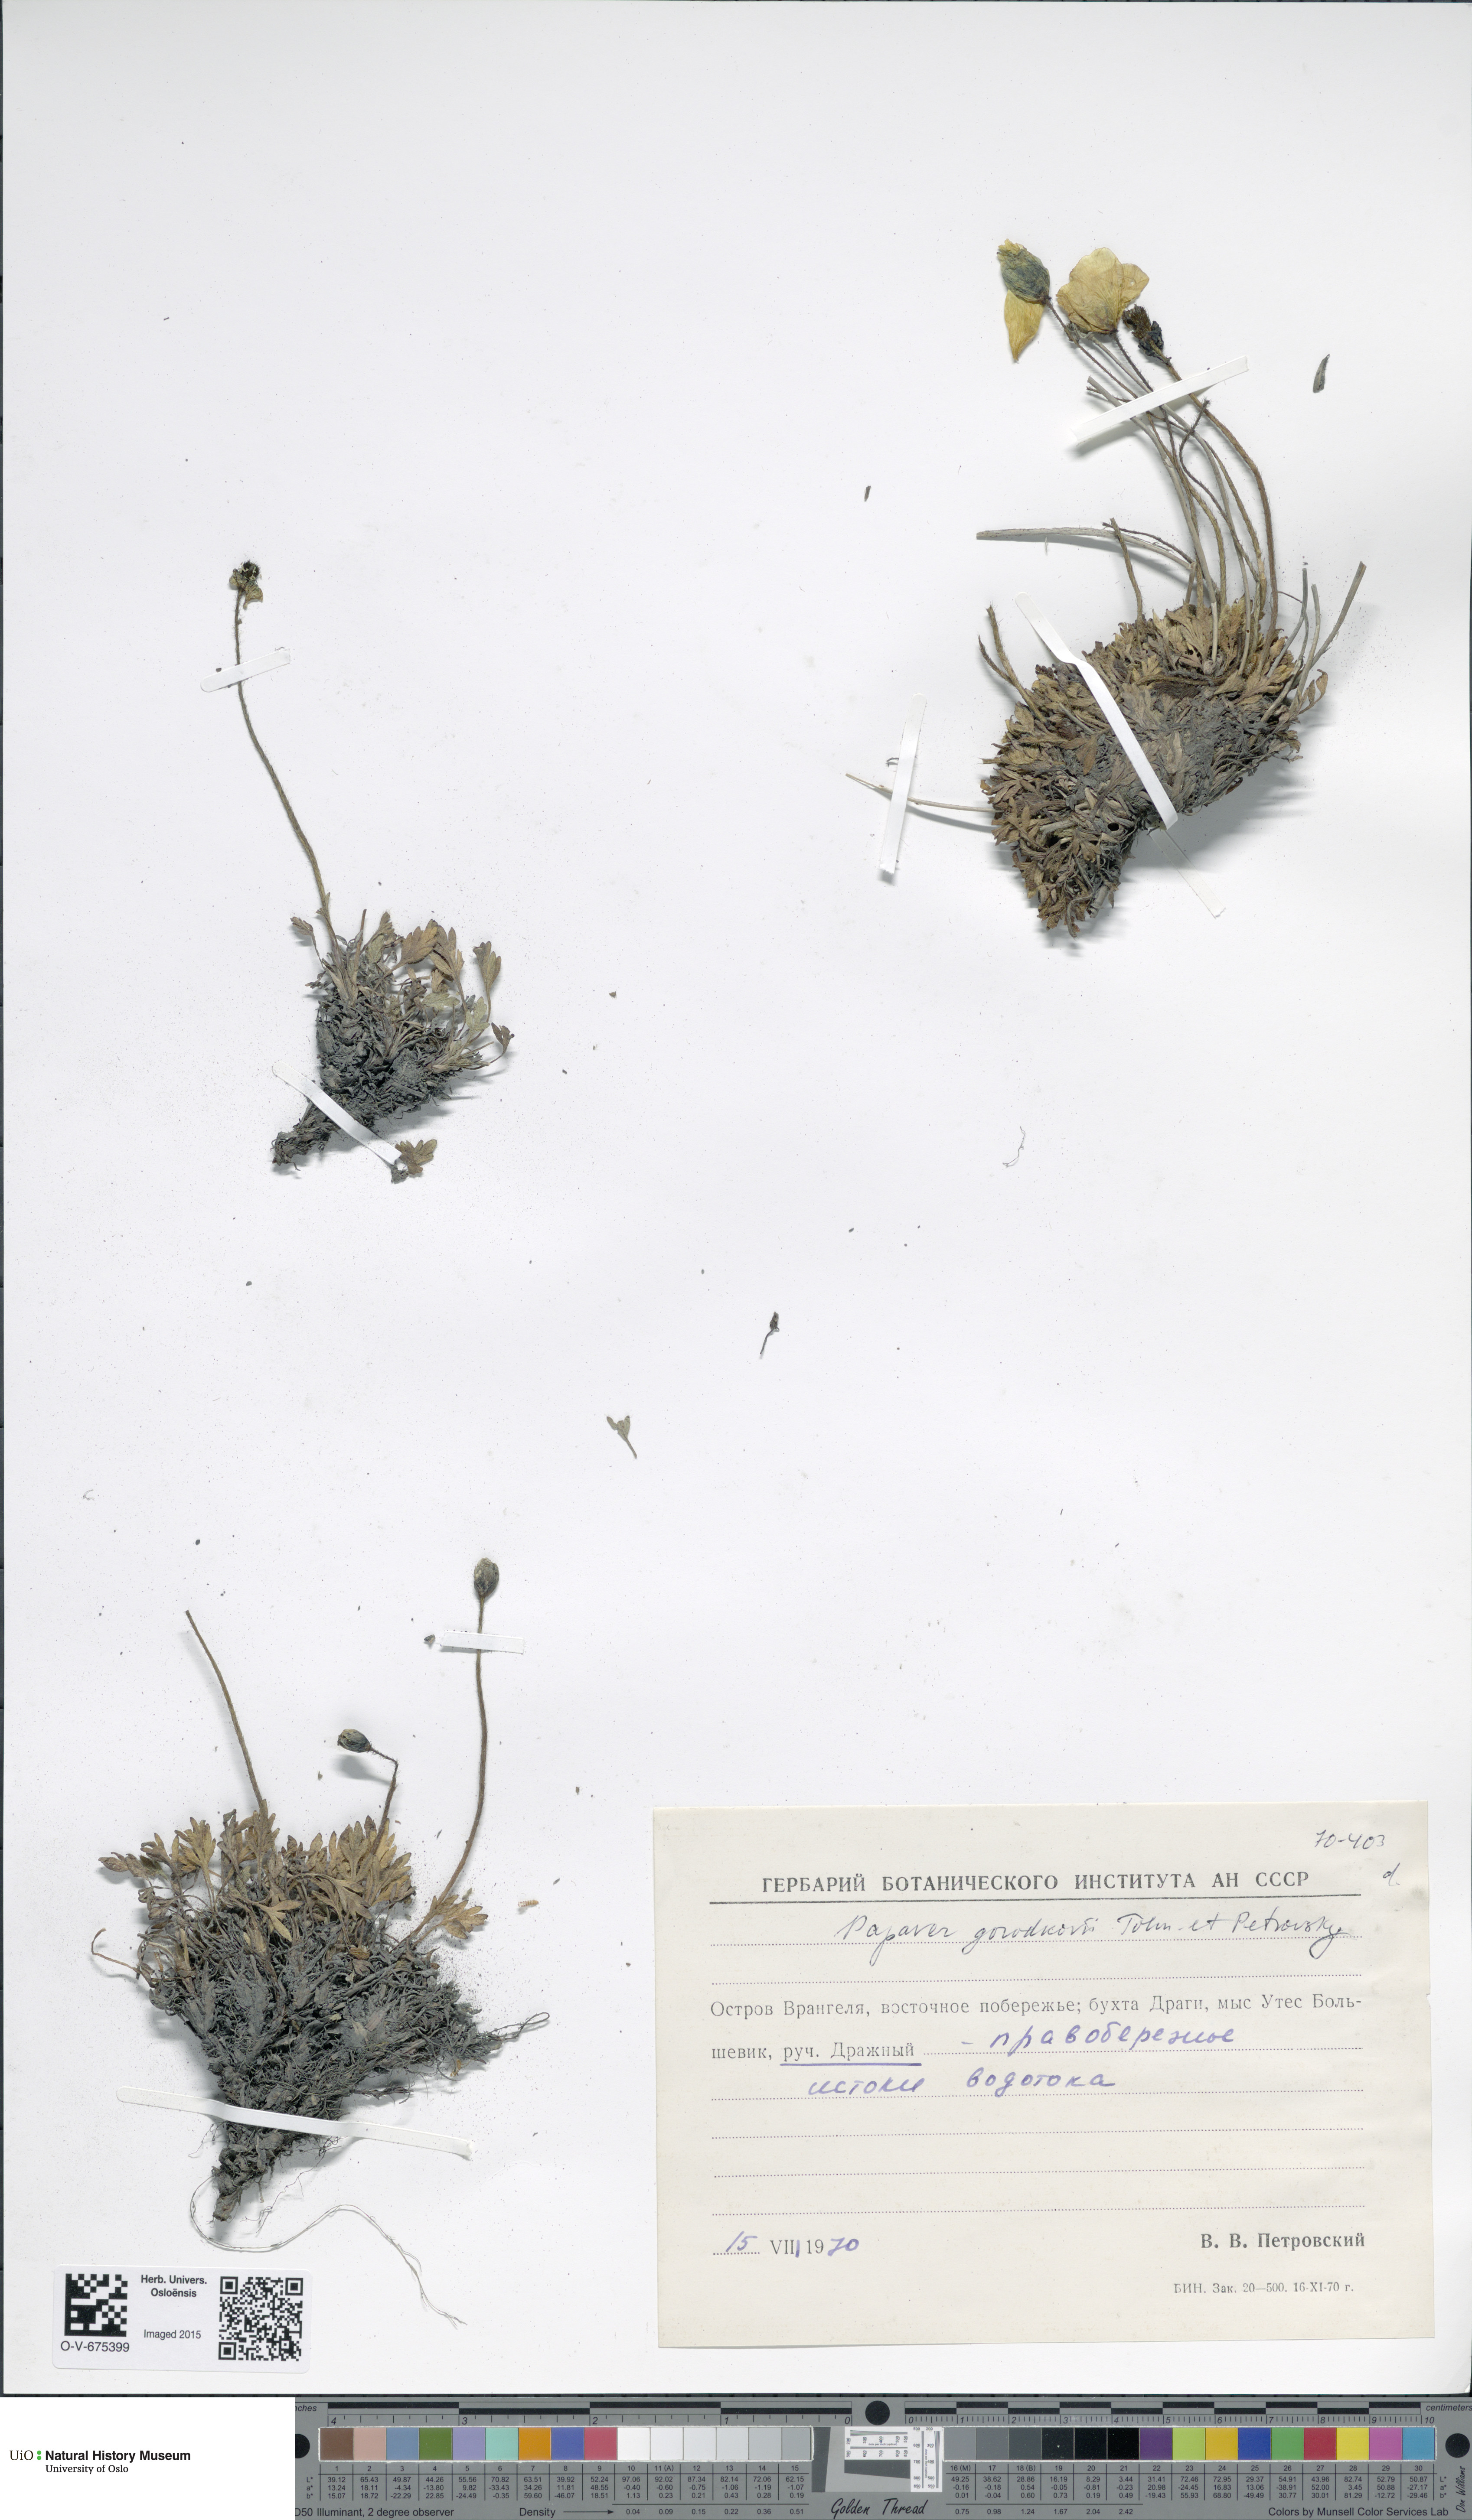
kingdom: Plantae
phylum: Tracheophyta
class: Magnoliopsida
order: Ranunculales
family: Papaveraceae
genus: Papaver
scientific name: Papaver gorodkovii
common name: Gorodkov's poppy
